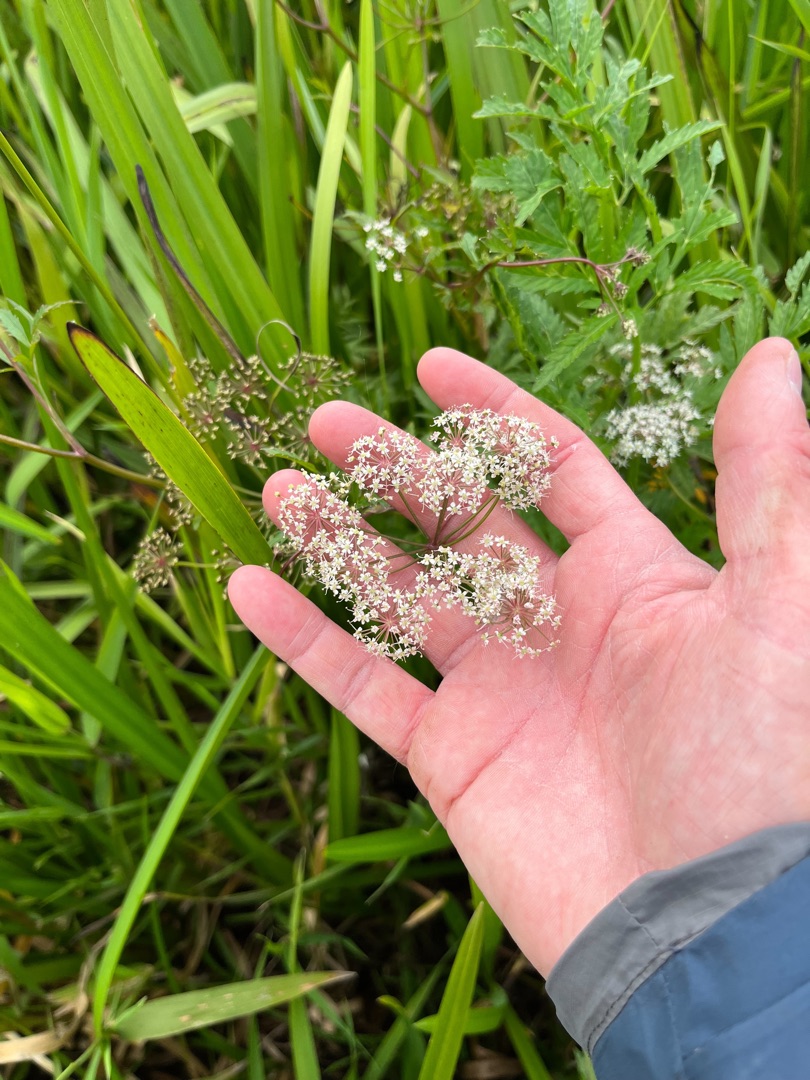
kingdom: Plantae
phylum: Tracheophyta
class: Magnoliopsida
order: Apiales
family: Apiaceae
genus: Cicuta
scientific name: Cicuta virosa
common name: Gifttyde
